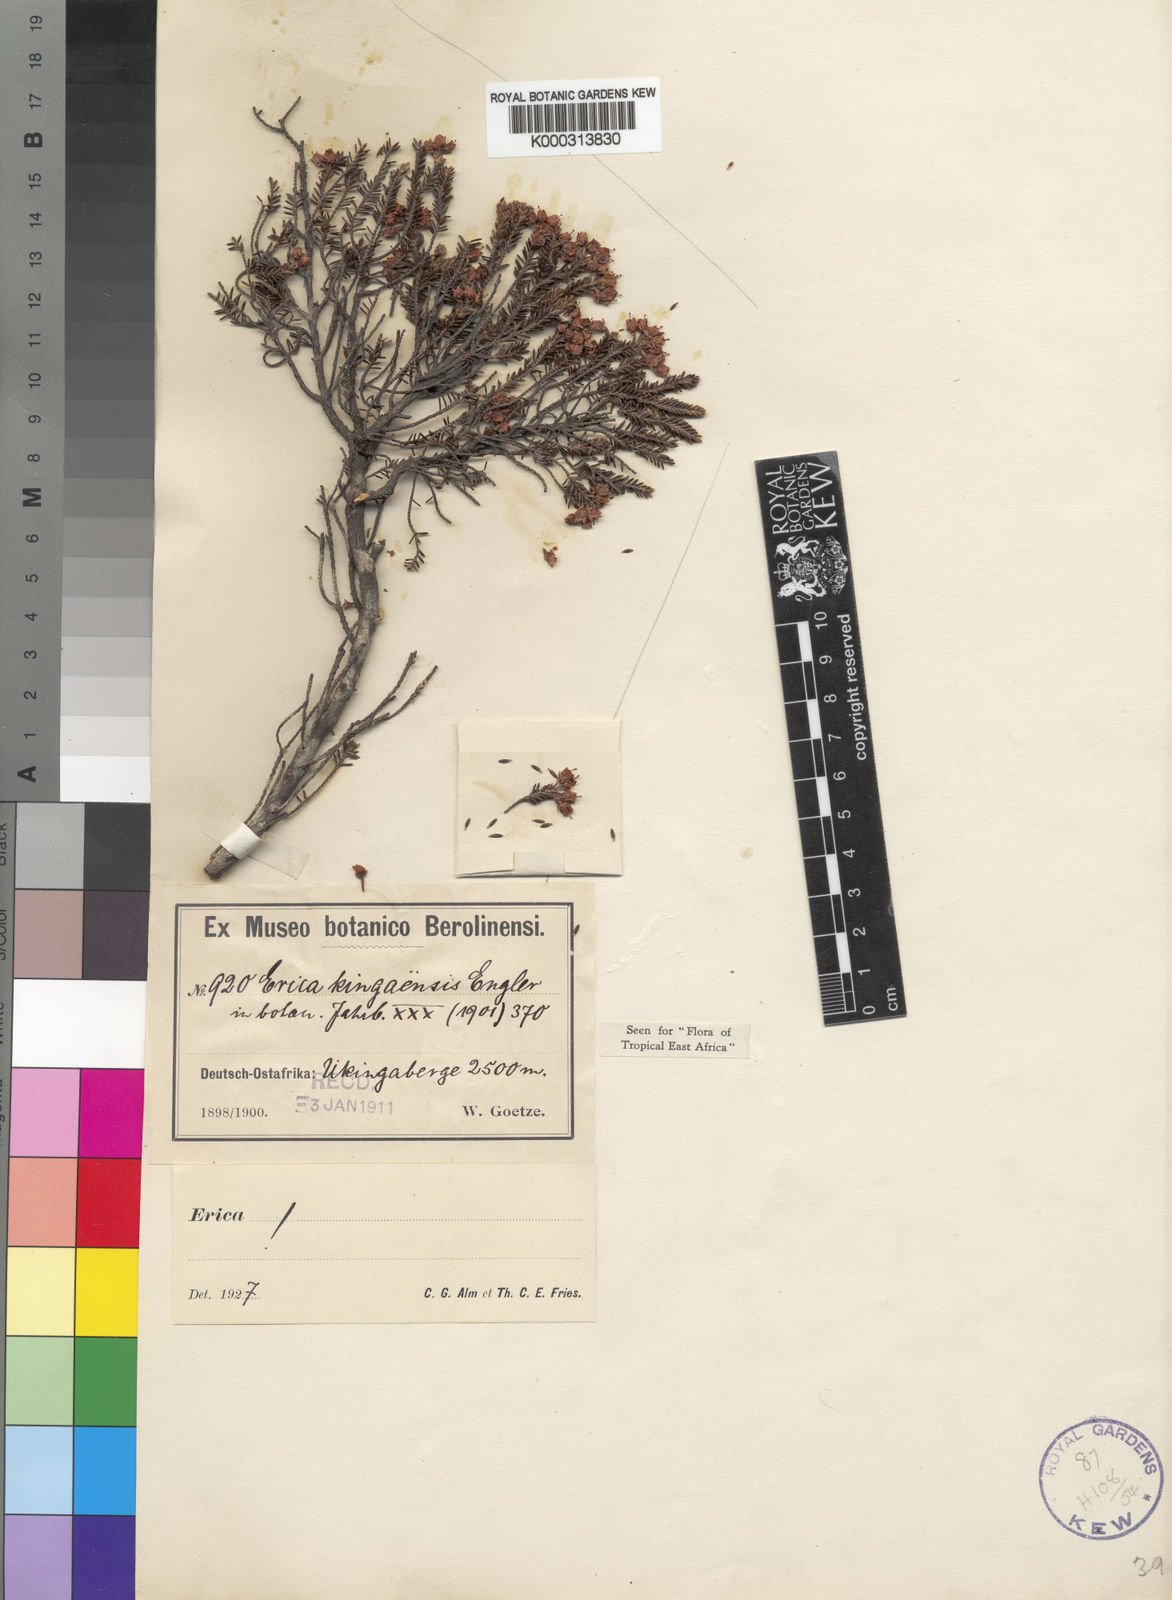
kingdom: Plantae
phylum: Tracheophyta
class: Magnoliopsida
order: Ericales
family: Ericaceae
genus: Erica
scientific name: Erica kingaensis
